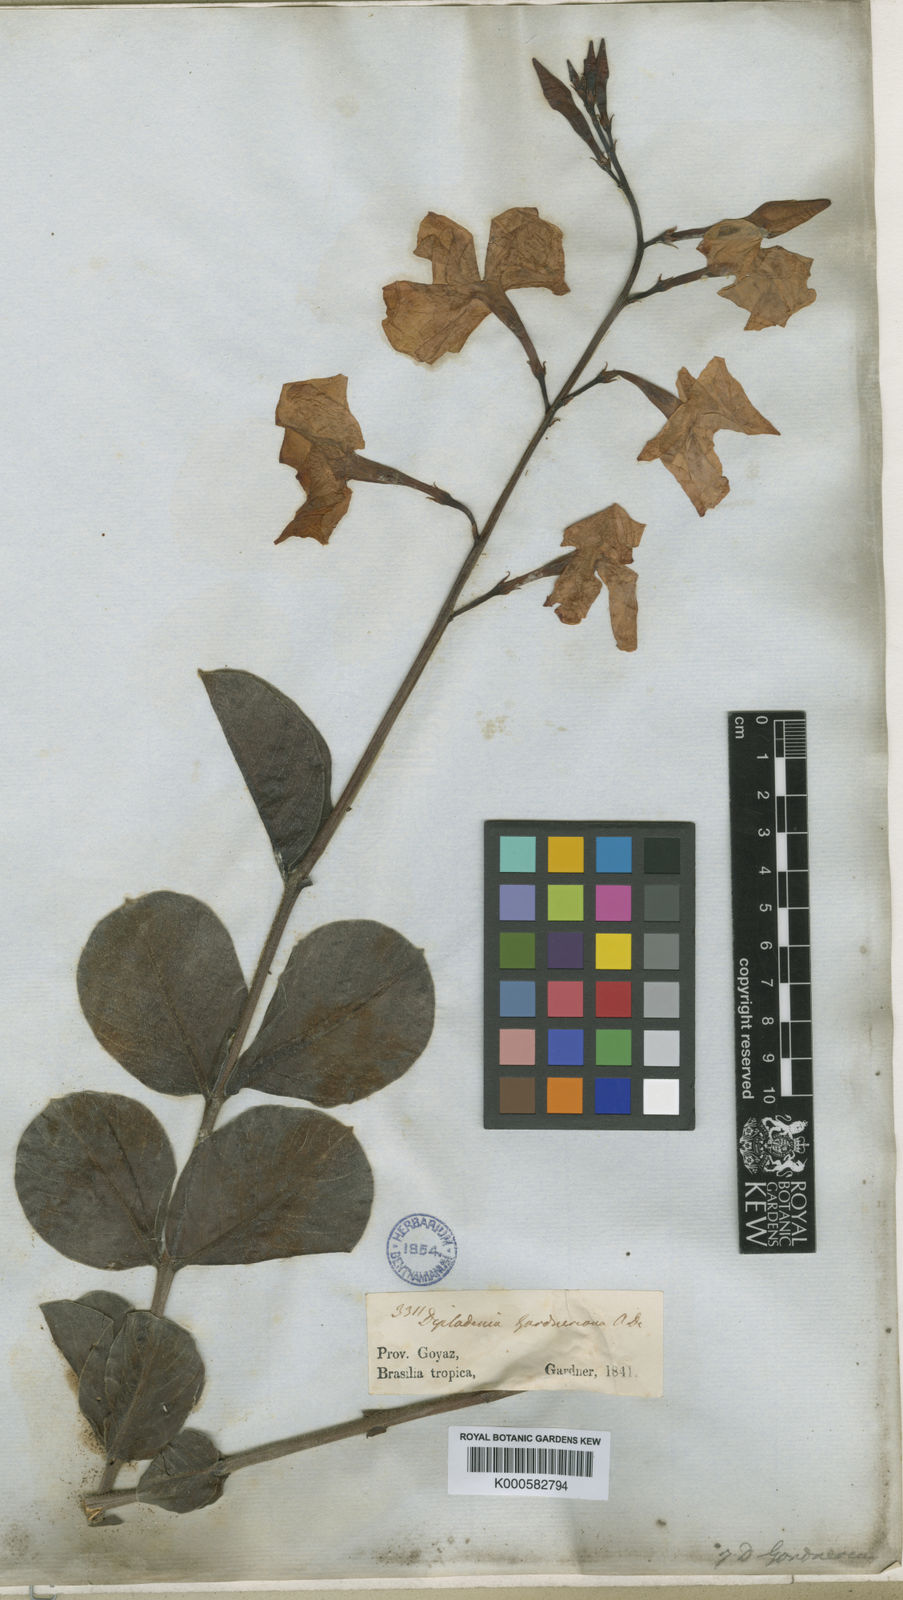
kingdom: Plantae
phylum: Tracheophyta
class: Magnoliopsida
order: Gentianales
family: Apocynaceae
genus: Mandevilla
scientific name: Mandevilla illustris
